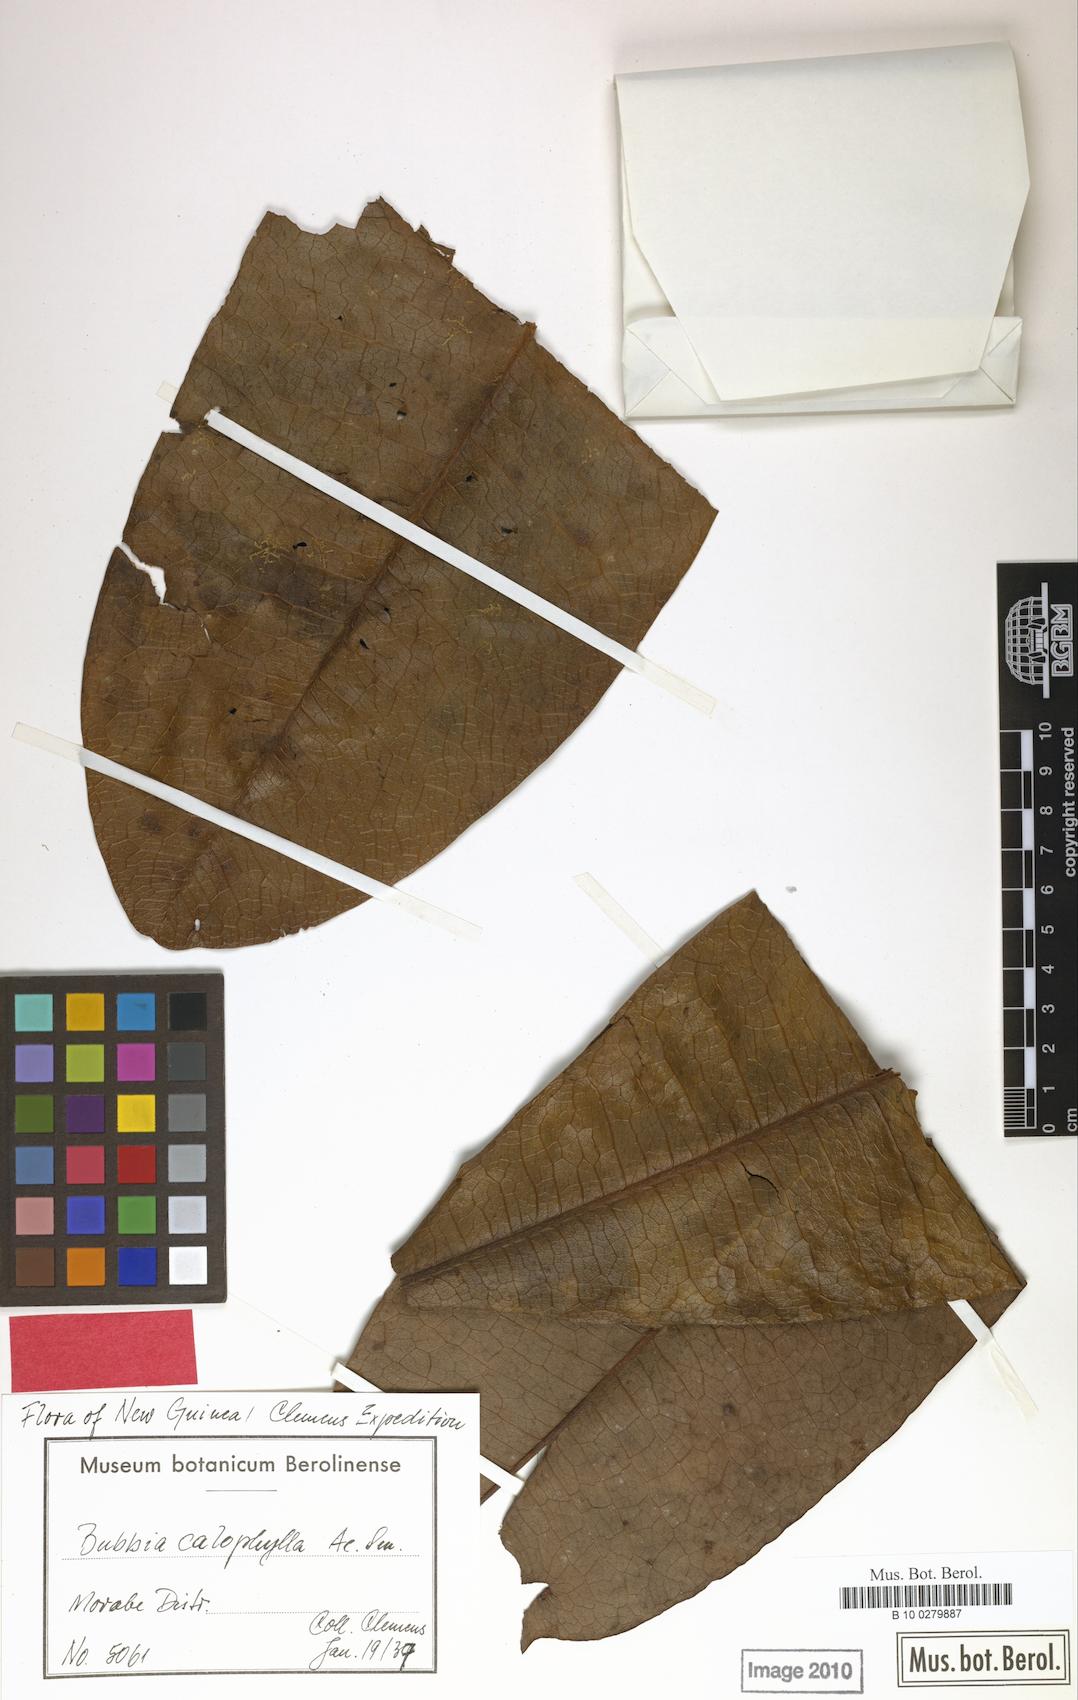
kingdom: Plantae
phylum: Tracheophyta
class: Magnoliopsida
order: Canellales
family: Winteraceae
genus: Zygogynum
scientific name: Zygogynum calophyllum
